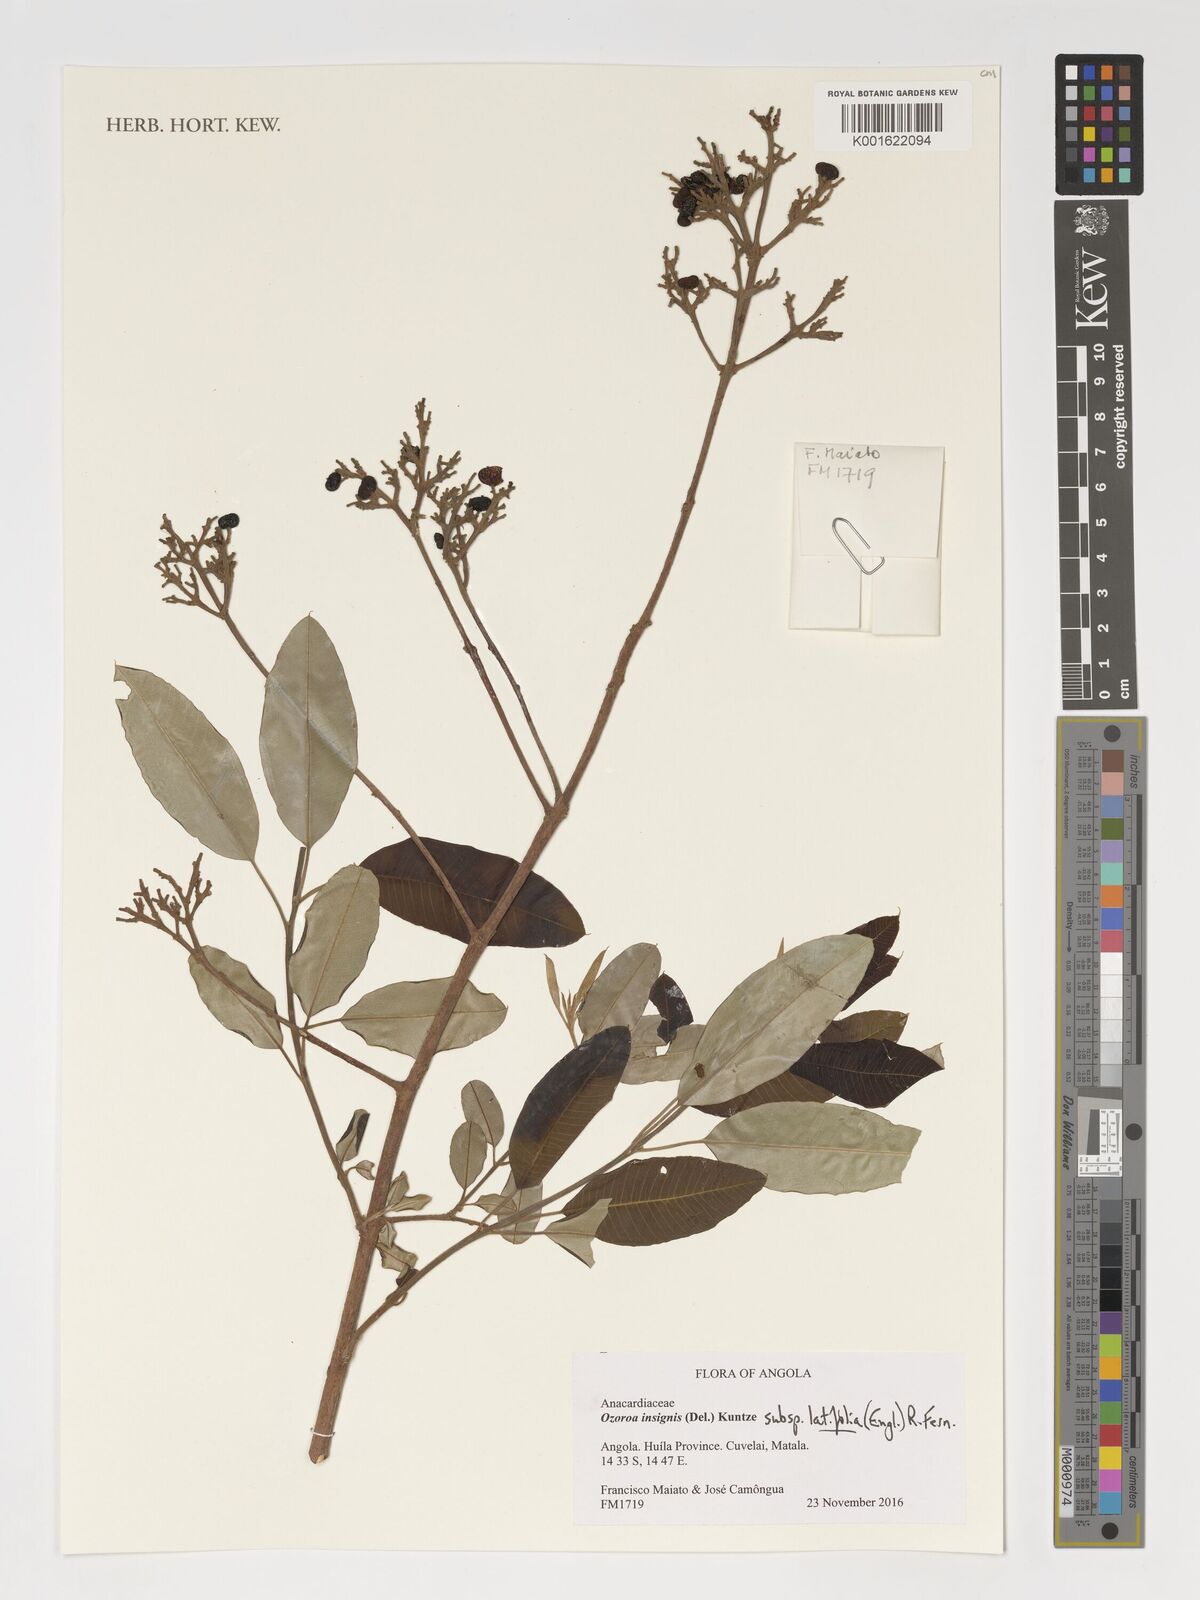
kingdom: Plantae
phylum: Tracheophyta
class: Magnoliopsida
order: Sapindales
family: Anacardiaceae
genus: Ozoroa
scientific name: Ozoroa insignis
